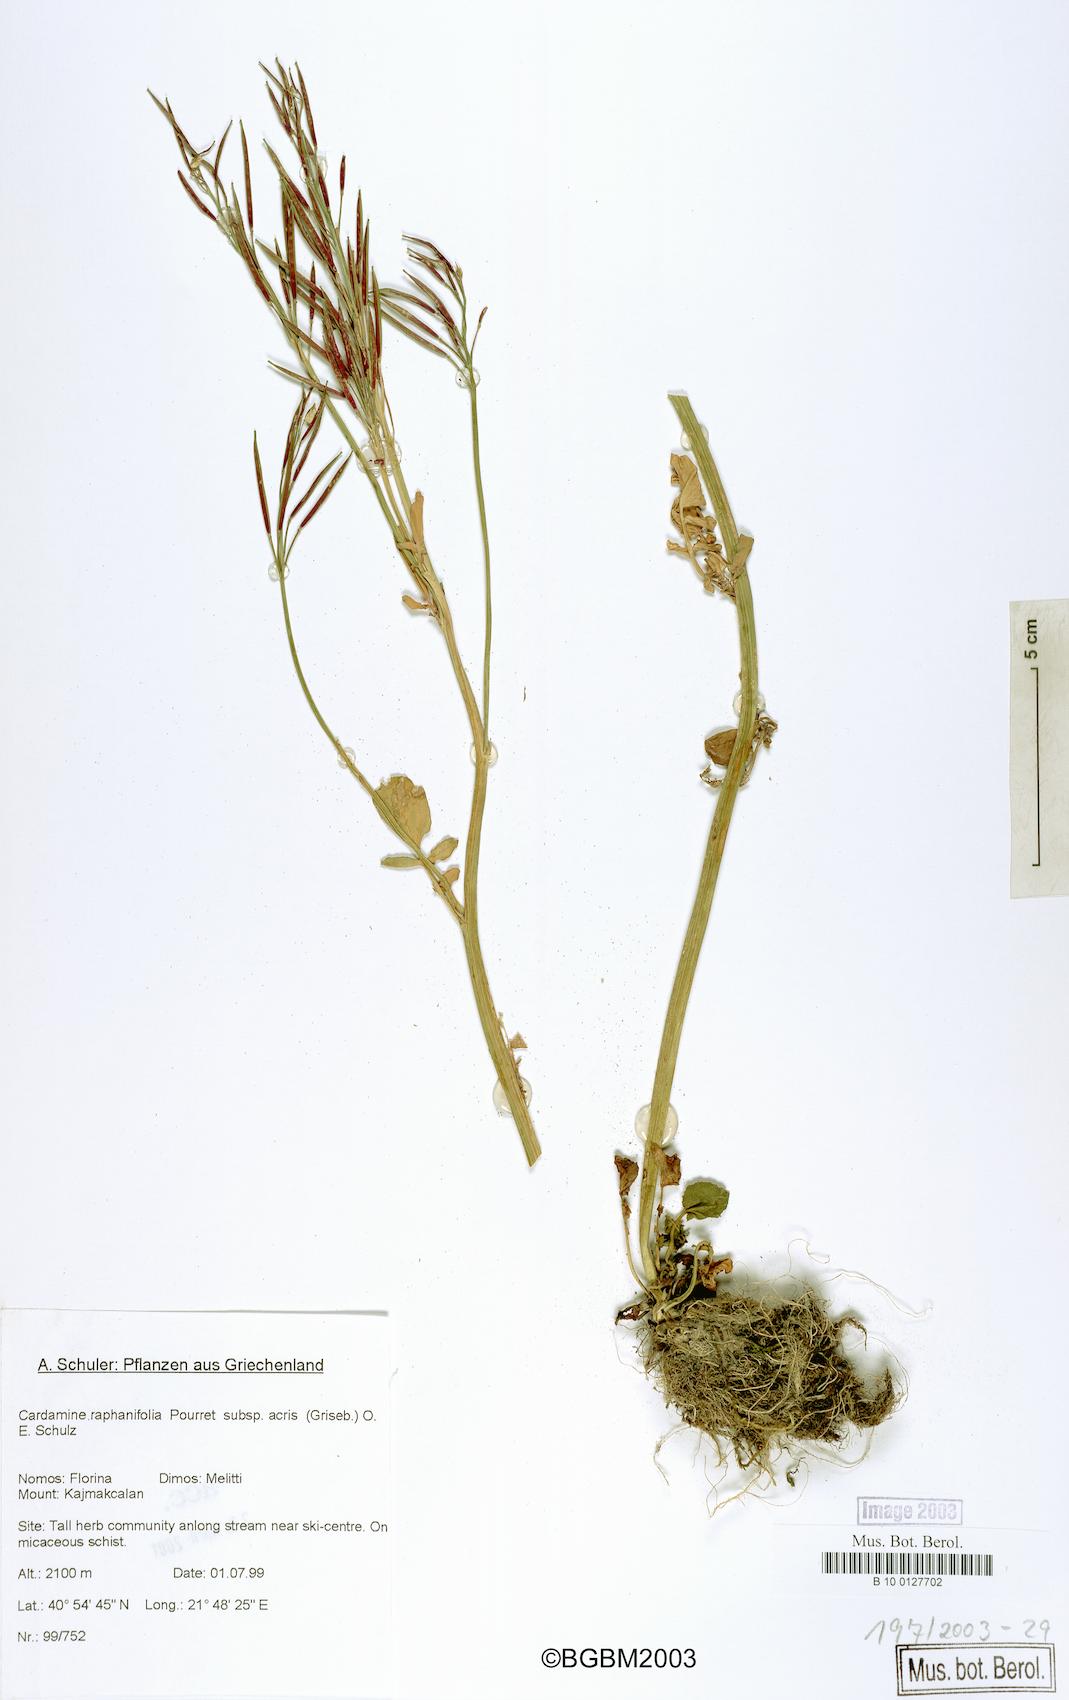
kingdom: Plantae
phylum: Tracheophyta
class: Magnoliopsida
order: Brassicales
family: Brassicaceae
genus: Cardamine
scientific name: Cardamine raphanifolia
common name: Greater cuckooflower
